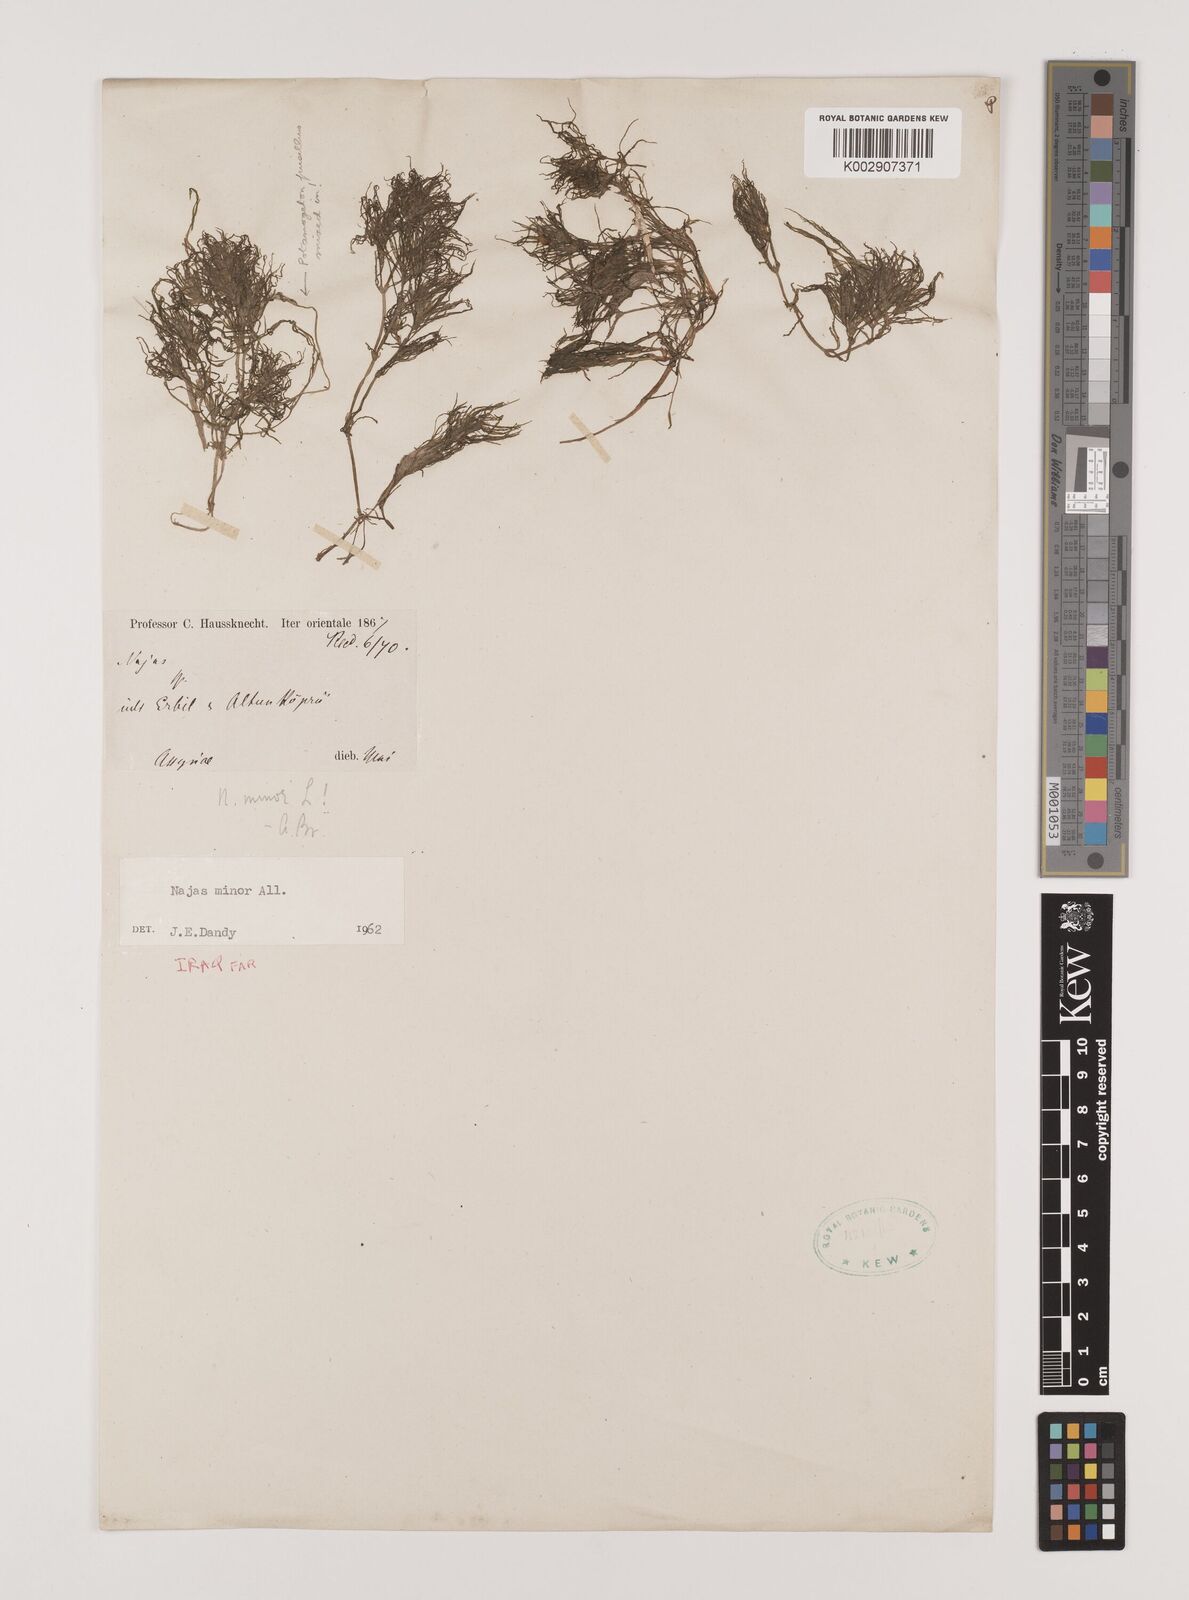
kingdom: Plantae
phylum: Tracheophyta
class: Liliopsida
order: Alismatales
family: Hydrocharitaceae
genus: Najas
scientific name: Najas minor
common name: Brittle naiad
